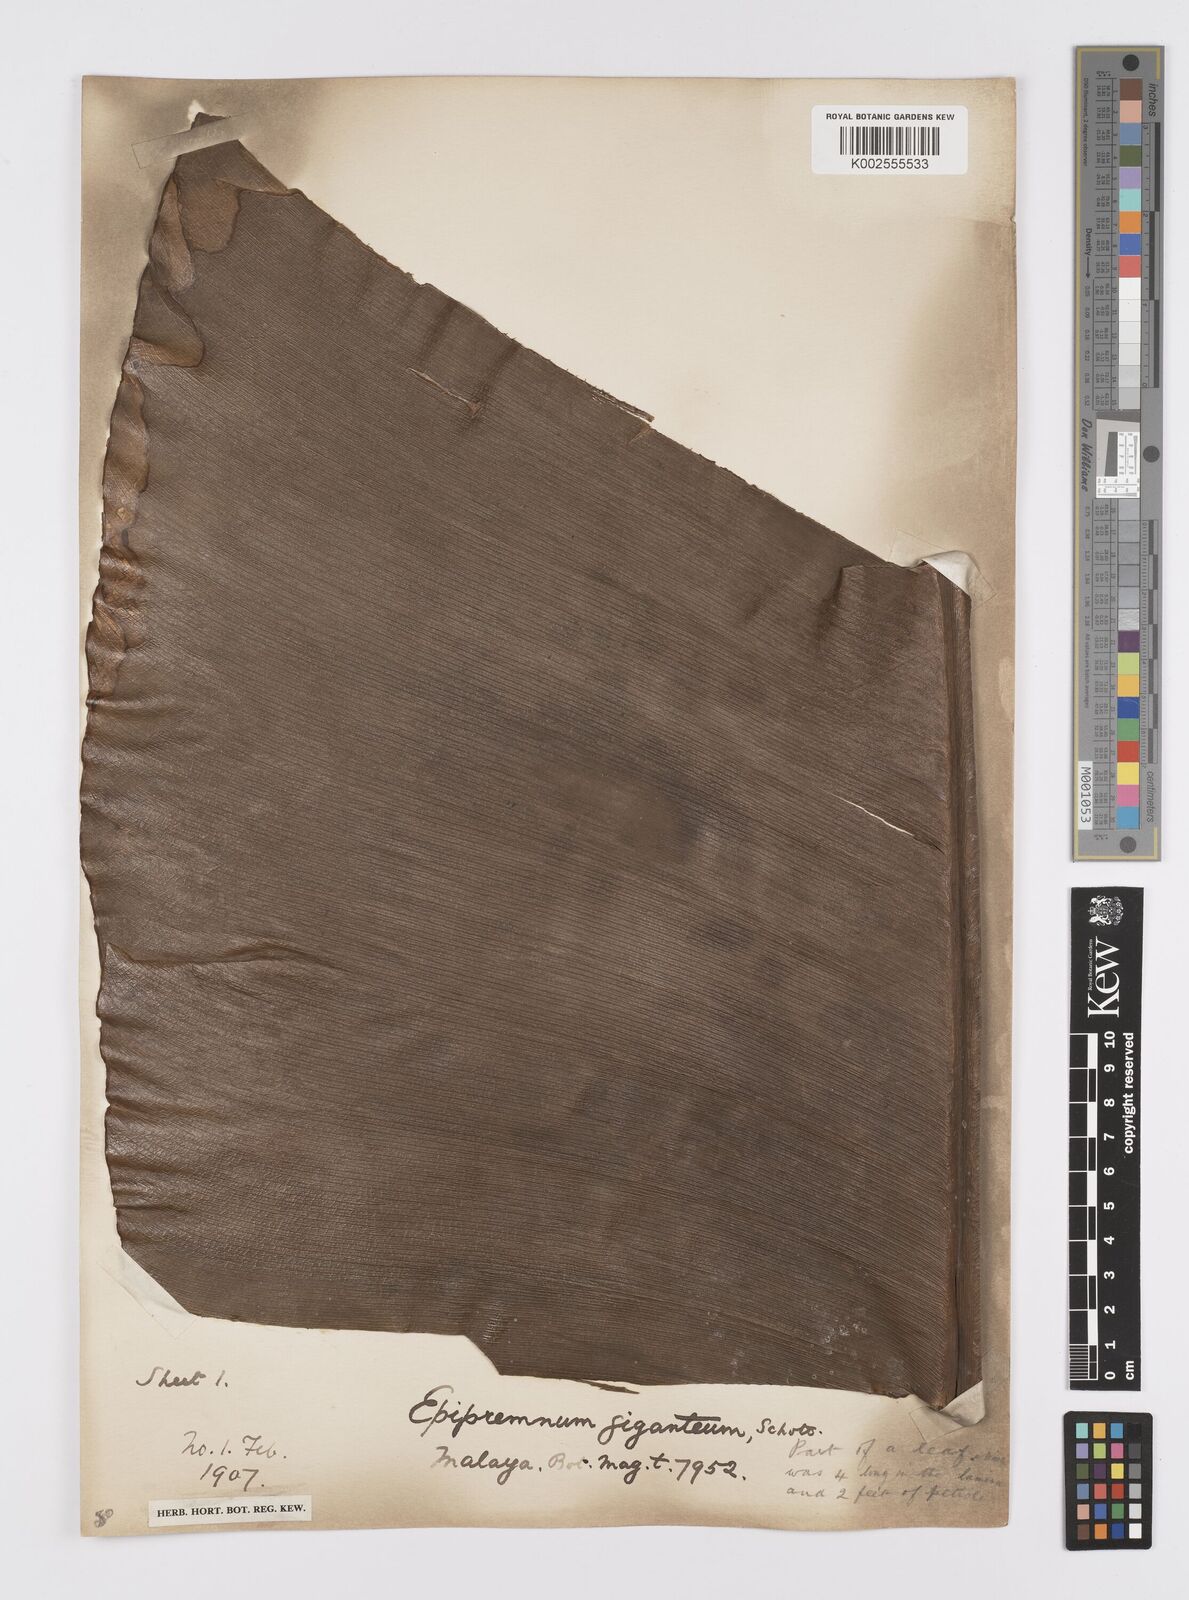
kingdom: Plantae
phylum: Tracheophyta
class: Liliopsida
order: Alismatales
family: Araceae
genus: Epipremnum
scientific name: Epipremnum giganteum
